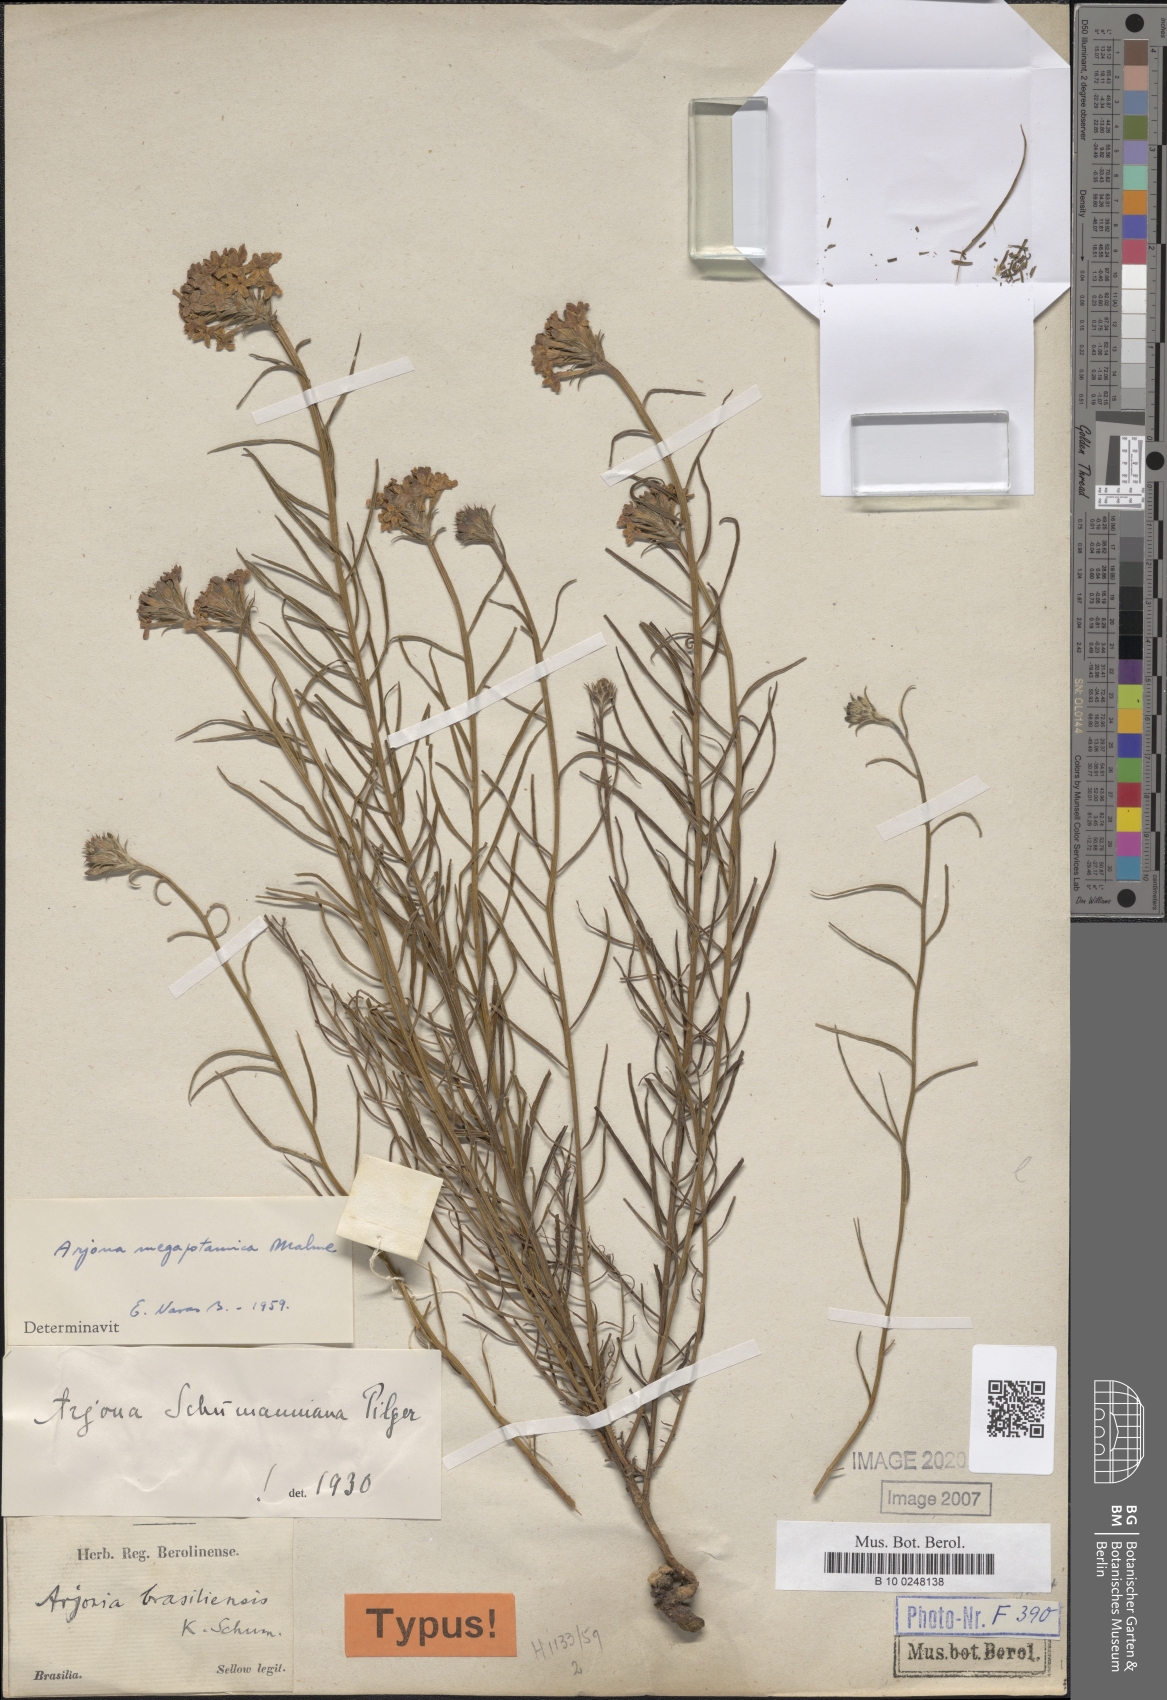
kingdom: Plantae
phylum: Tracheophyta
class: Magnoliopsida
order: Santalales
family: Schoepfiaceae
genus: Arjona
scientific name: Arjona megapotamica
